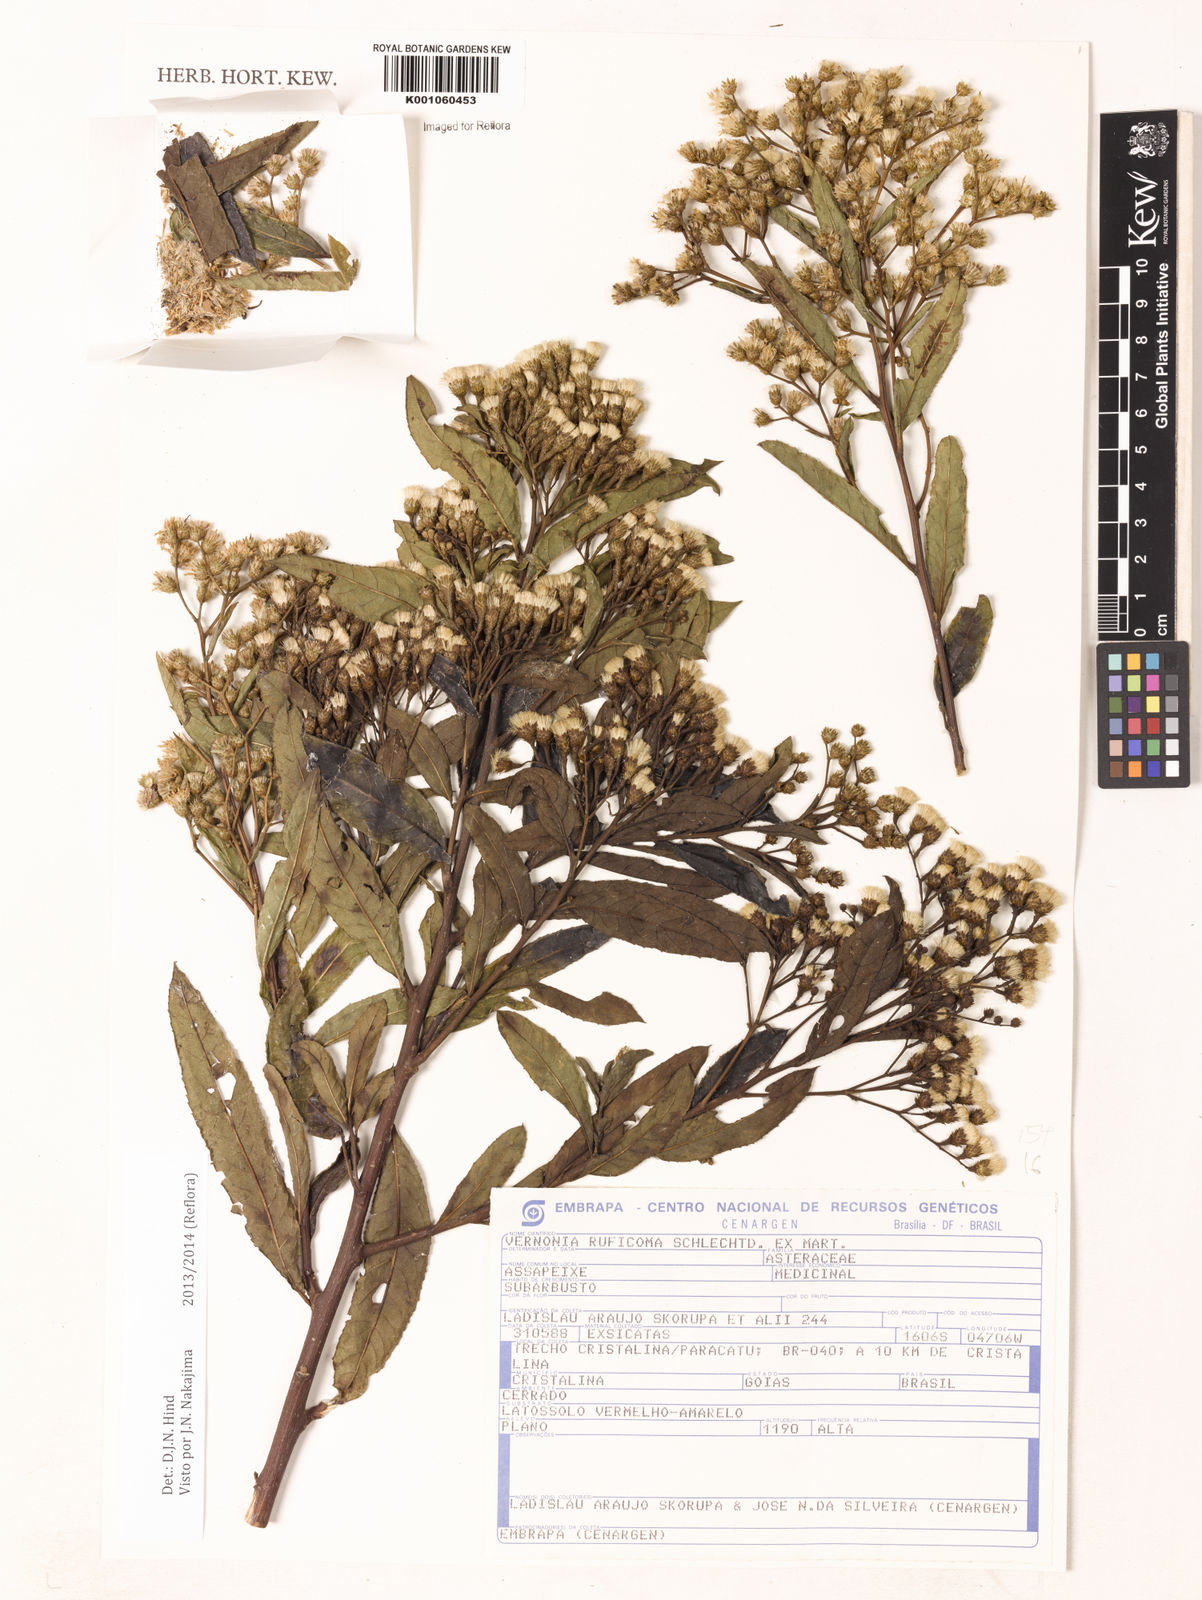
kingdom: Plantae
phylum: Tracheophyta
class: Magnoliopsida
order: Asterales
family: Asteraceae
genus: Vernonia
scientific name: Vernonia
